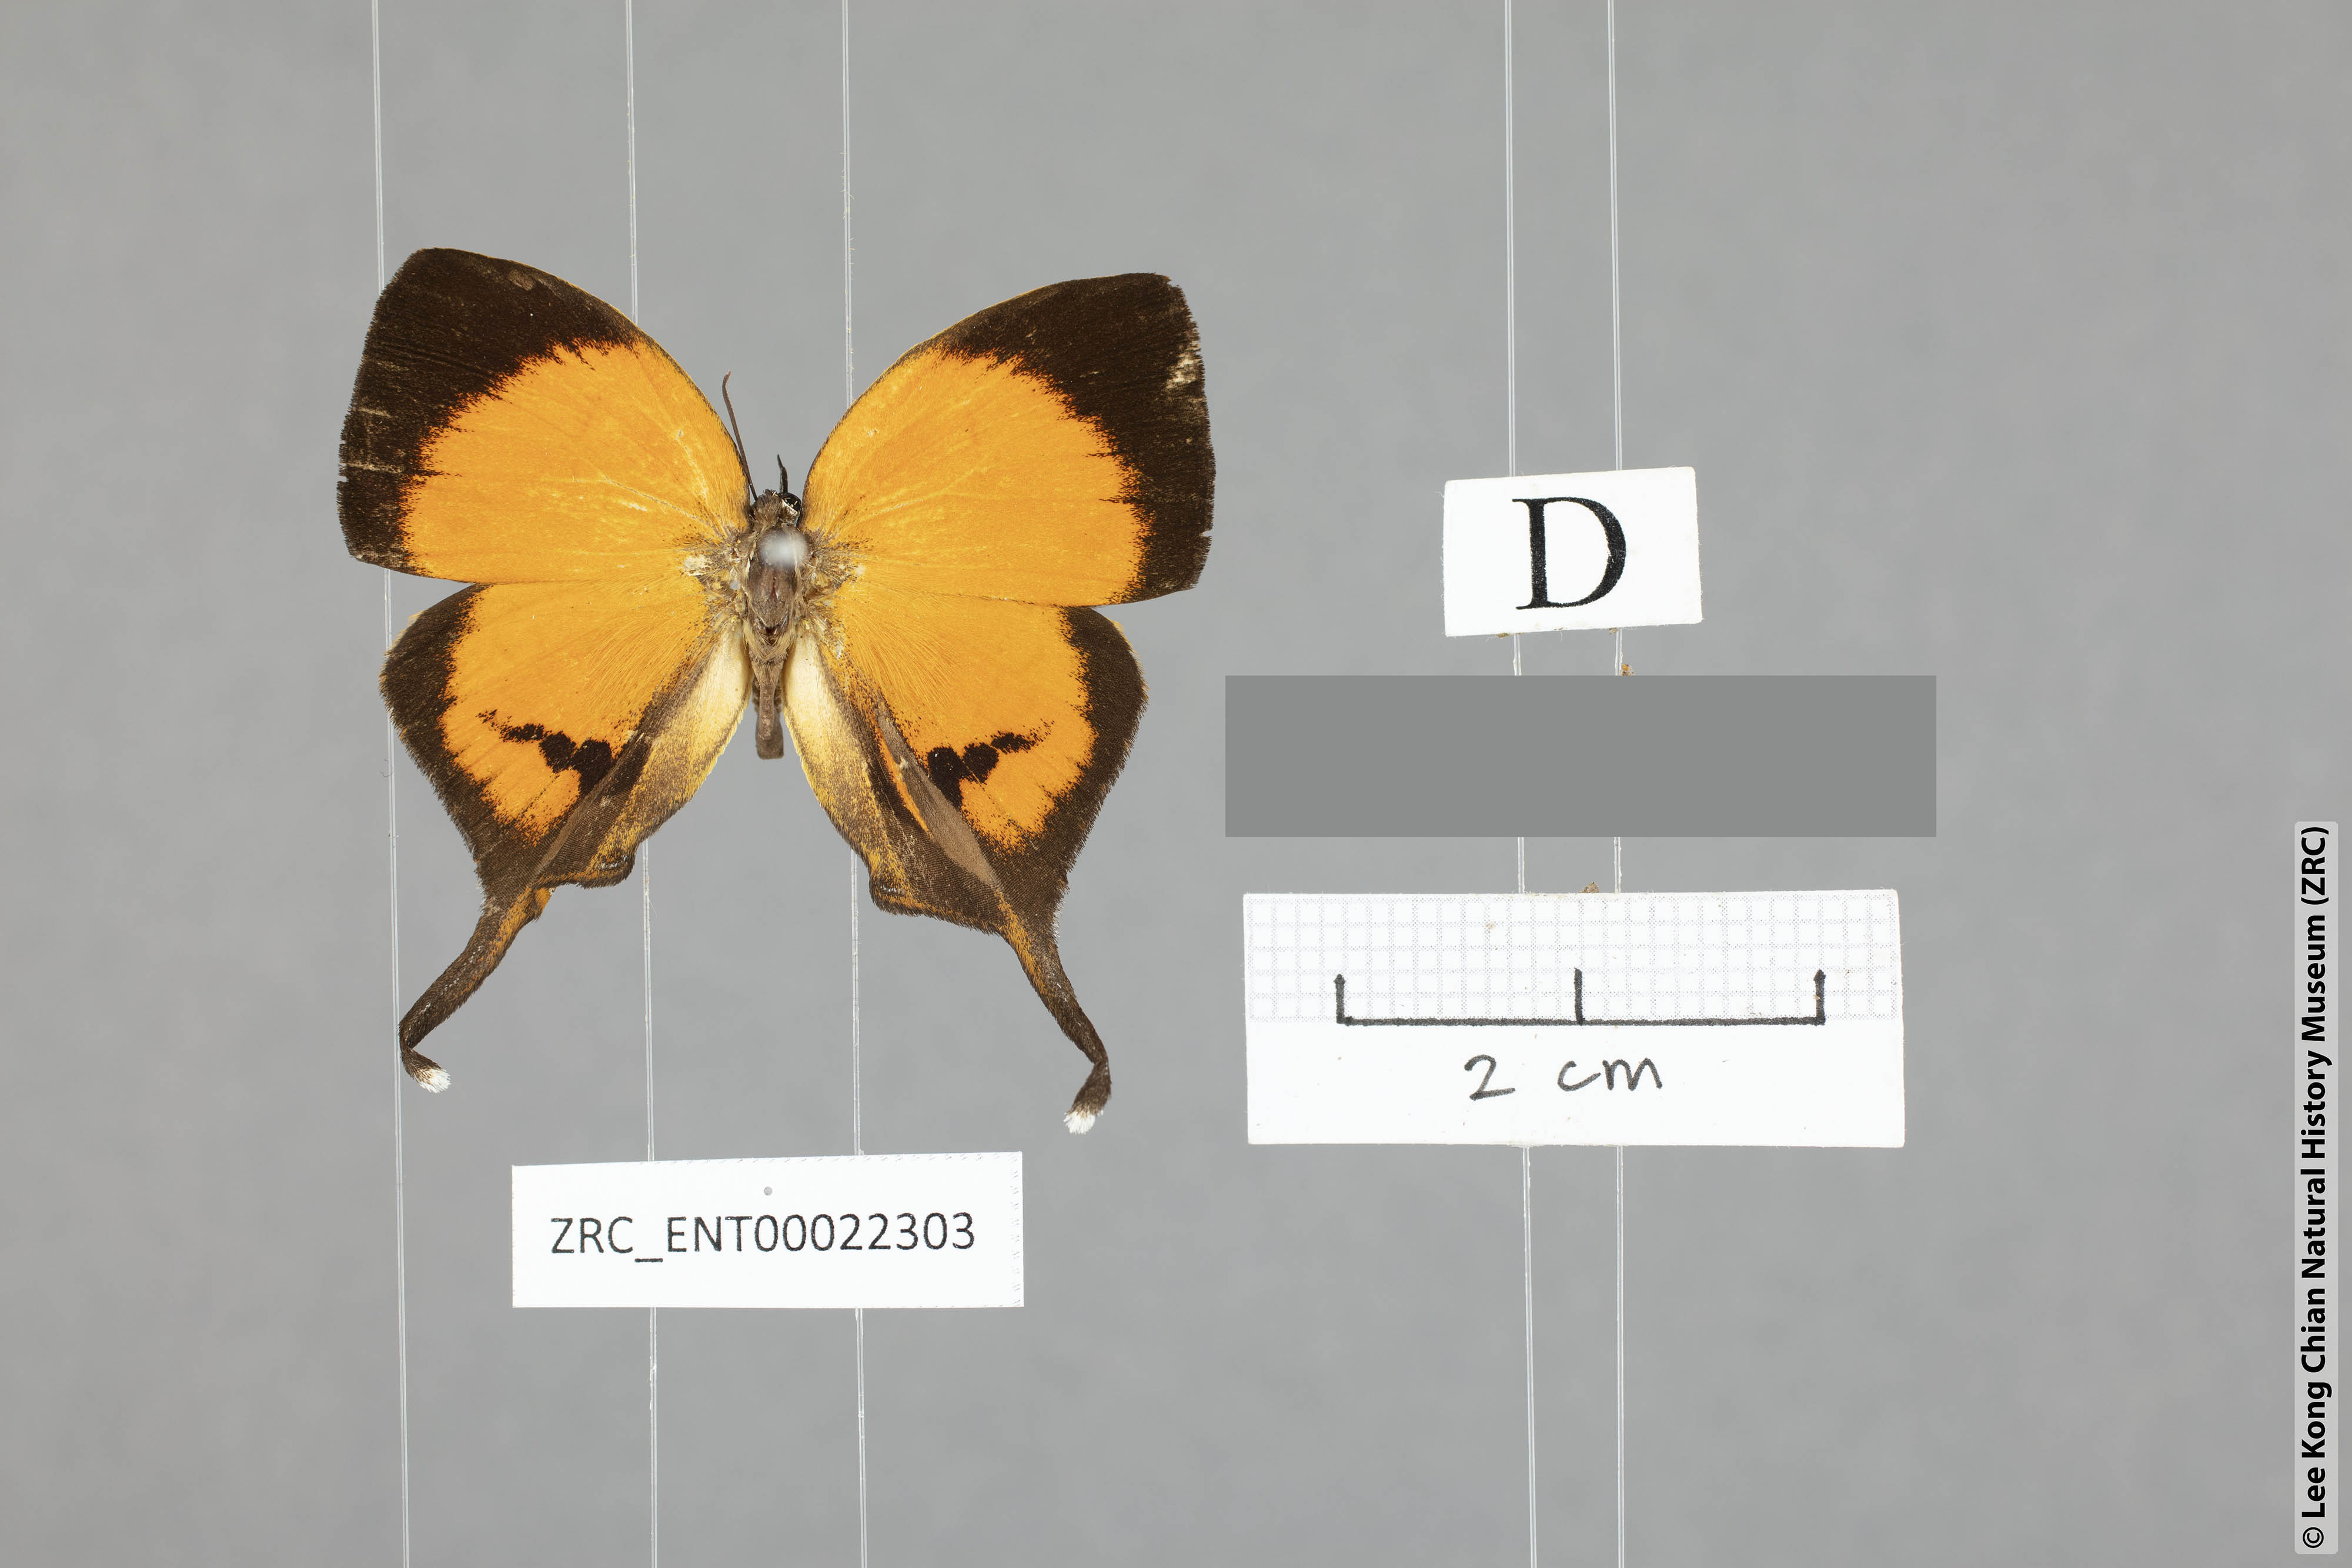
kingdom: Animalia
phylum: Arthropoda
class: Insecta
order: Lepidoptera
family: Lycaenidae
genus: Yasoda
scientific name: Yasoda pitane
